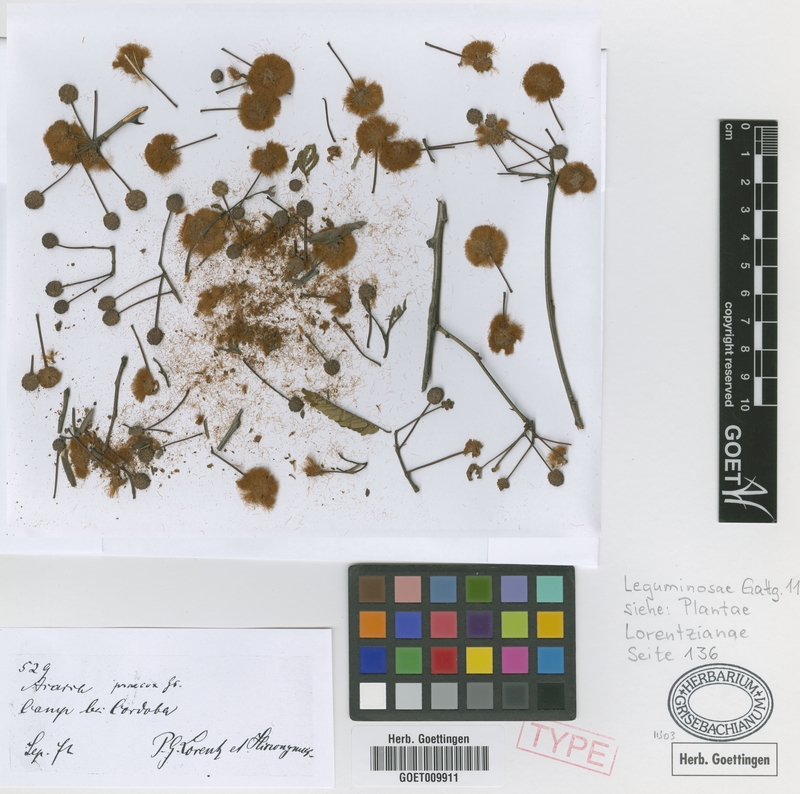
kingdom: Plantae
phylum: Tracheophyta
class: Magnoliopsida
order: Fabales
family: Fabaceae
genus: Senegalia
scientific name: Senegalia praecox
